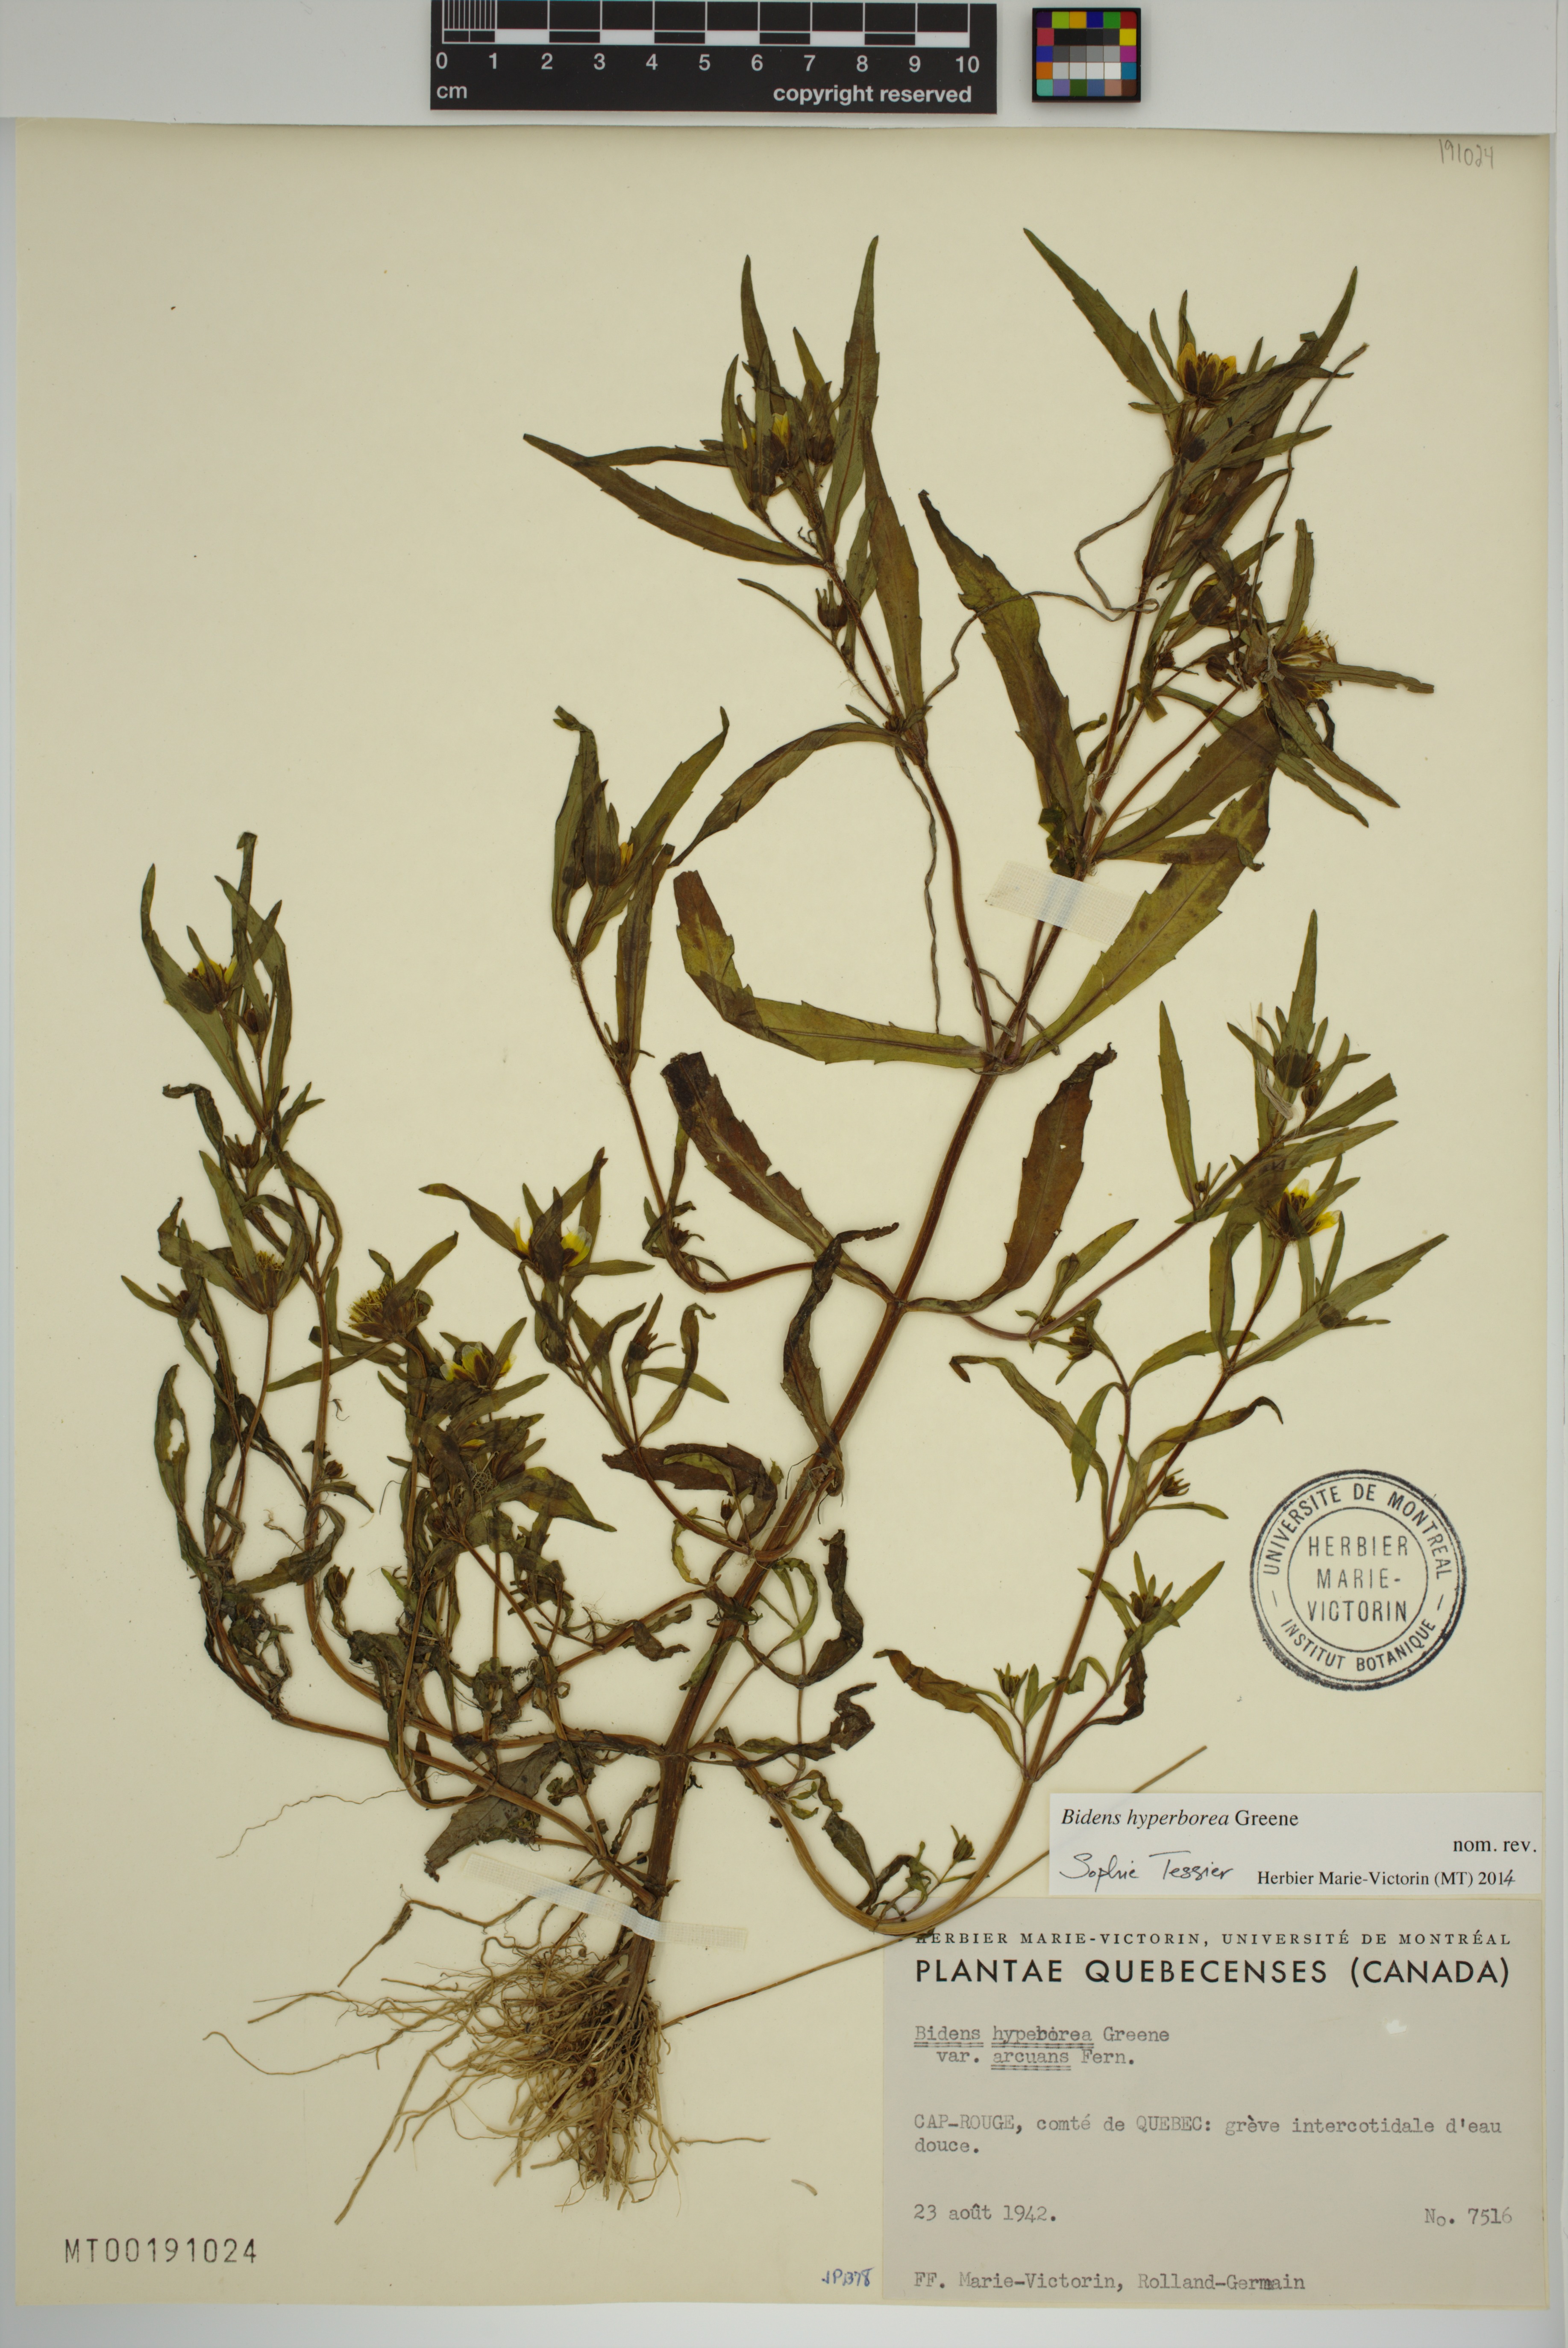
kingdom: Plantae
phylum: Tracheophyta
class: Magnoliopsida
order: Asterales
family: Asteraceae
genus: Bidens
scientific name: Bidens hyperborea
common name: Coastal beggarticks
